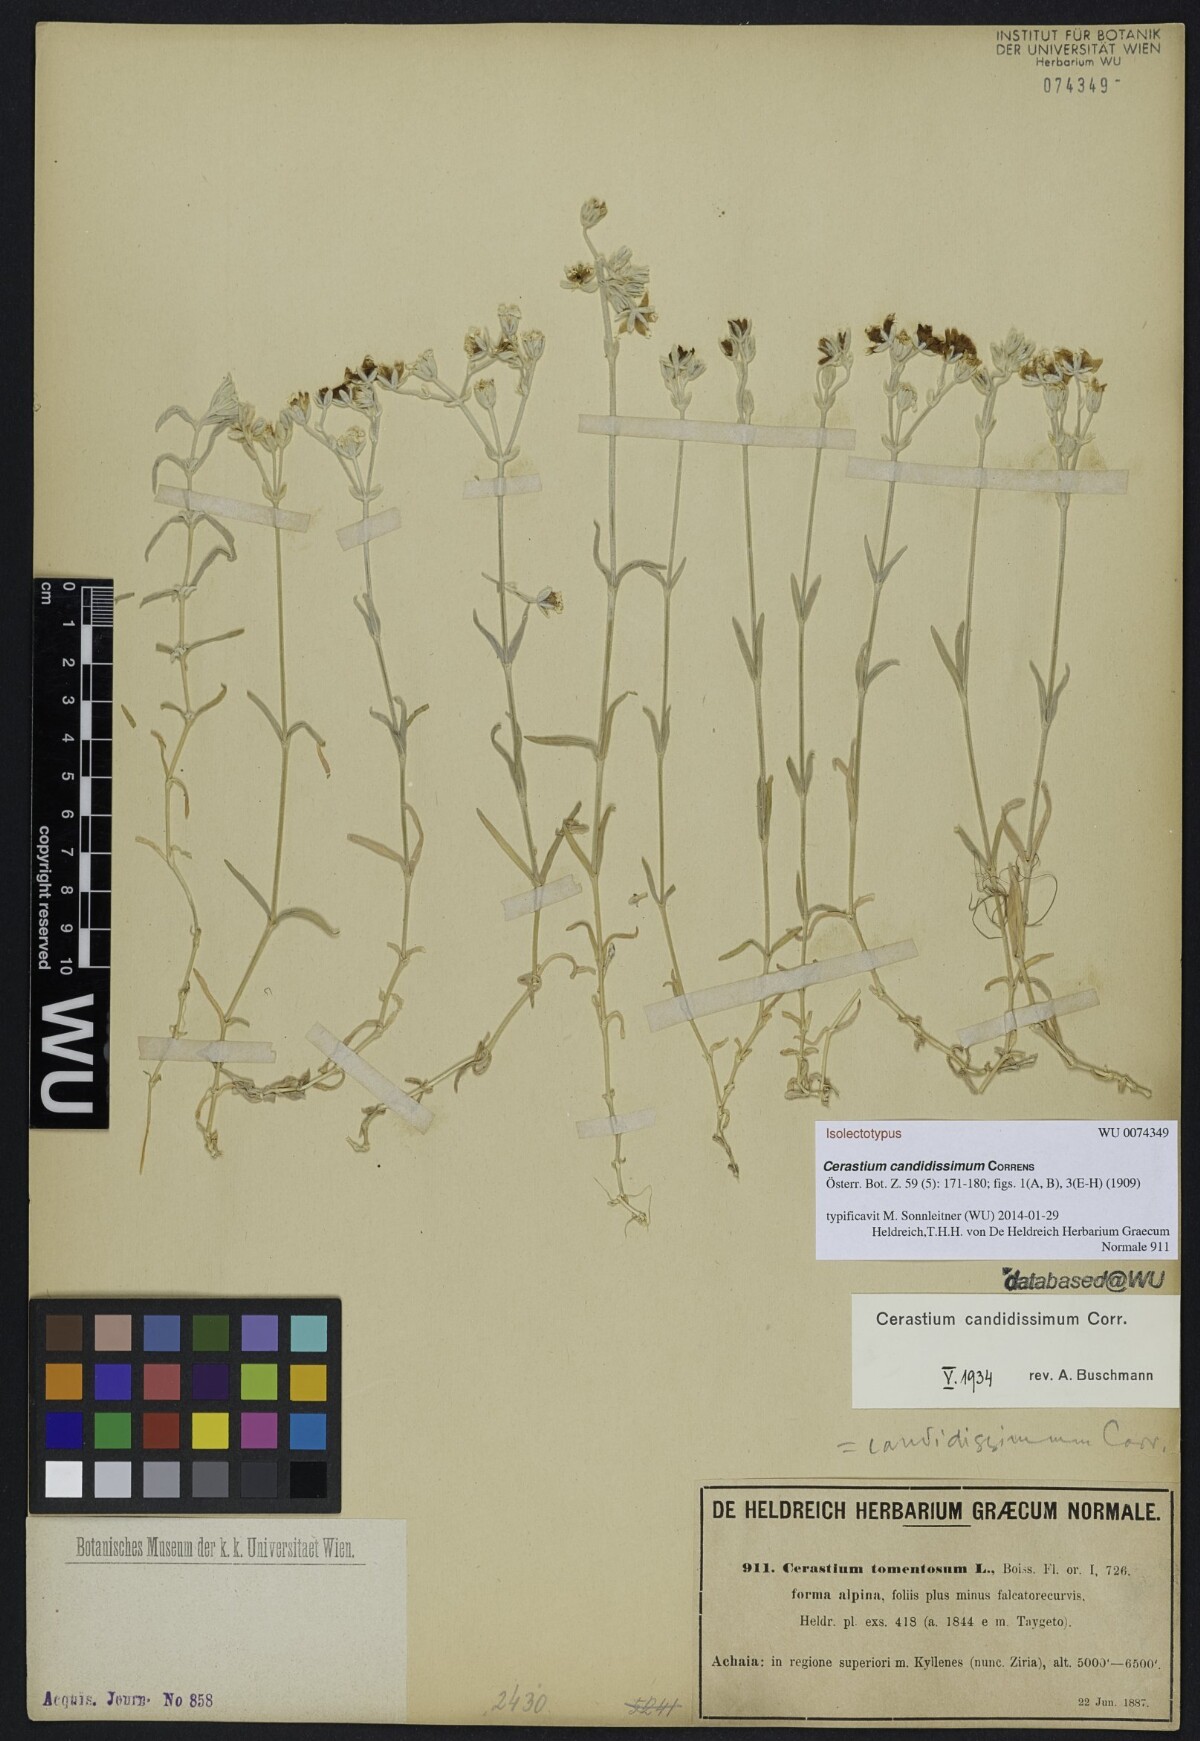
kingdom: Plantae
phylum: Tracheophyta
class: Magnoliopsida
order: Caryophyllales
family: Caryophyllaceae
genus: Cerastium
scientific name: Cerastium candidissimum
